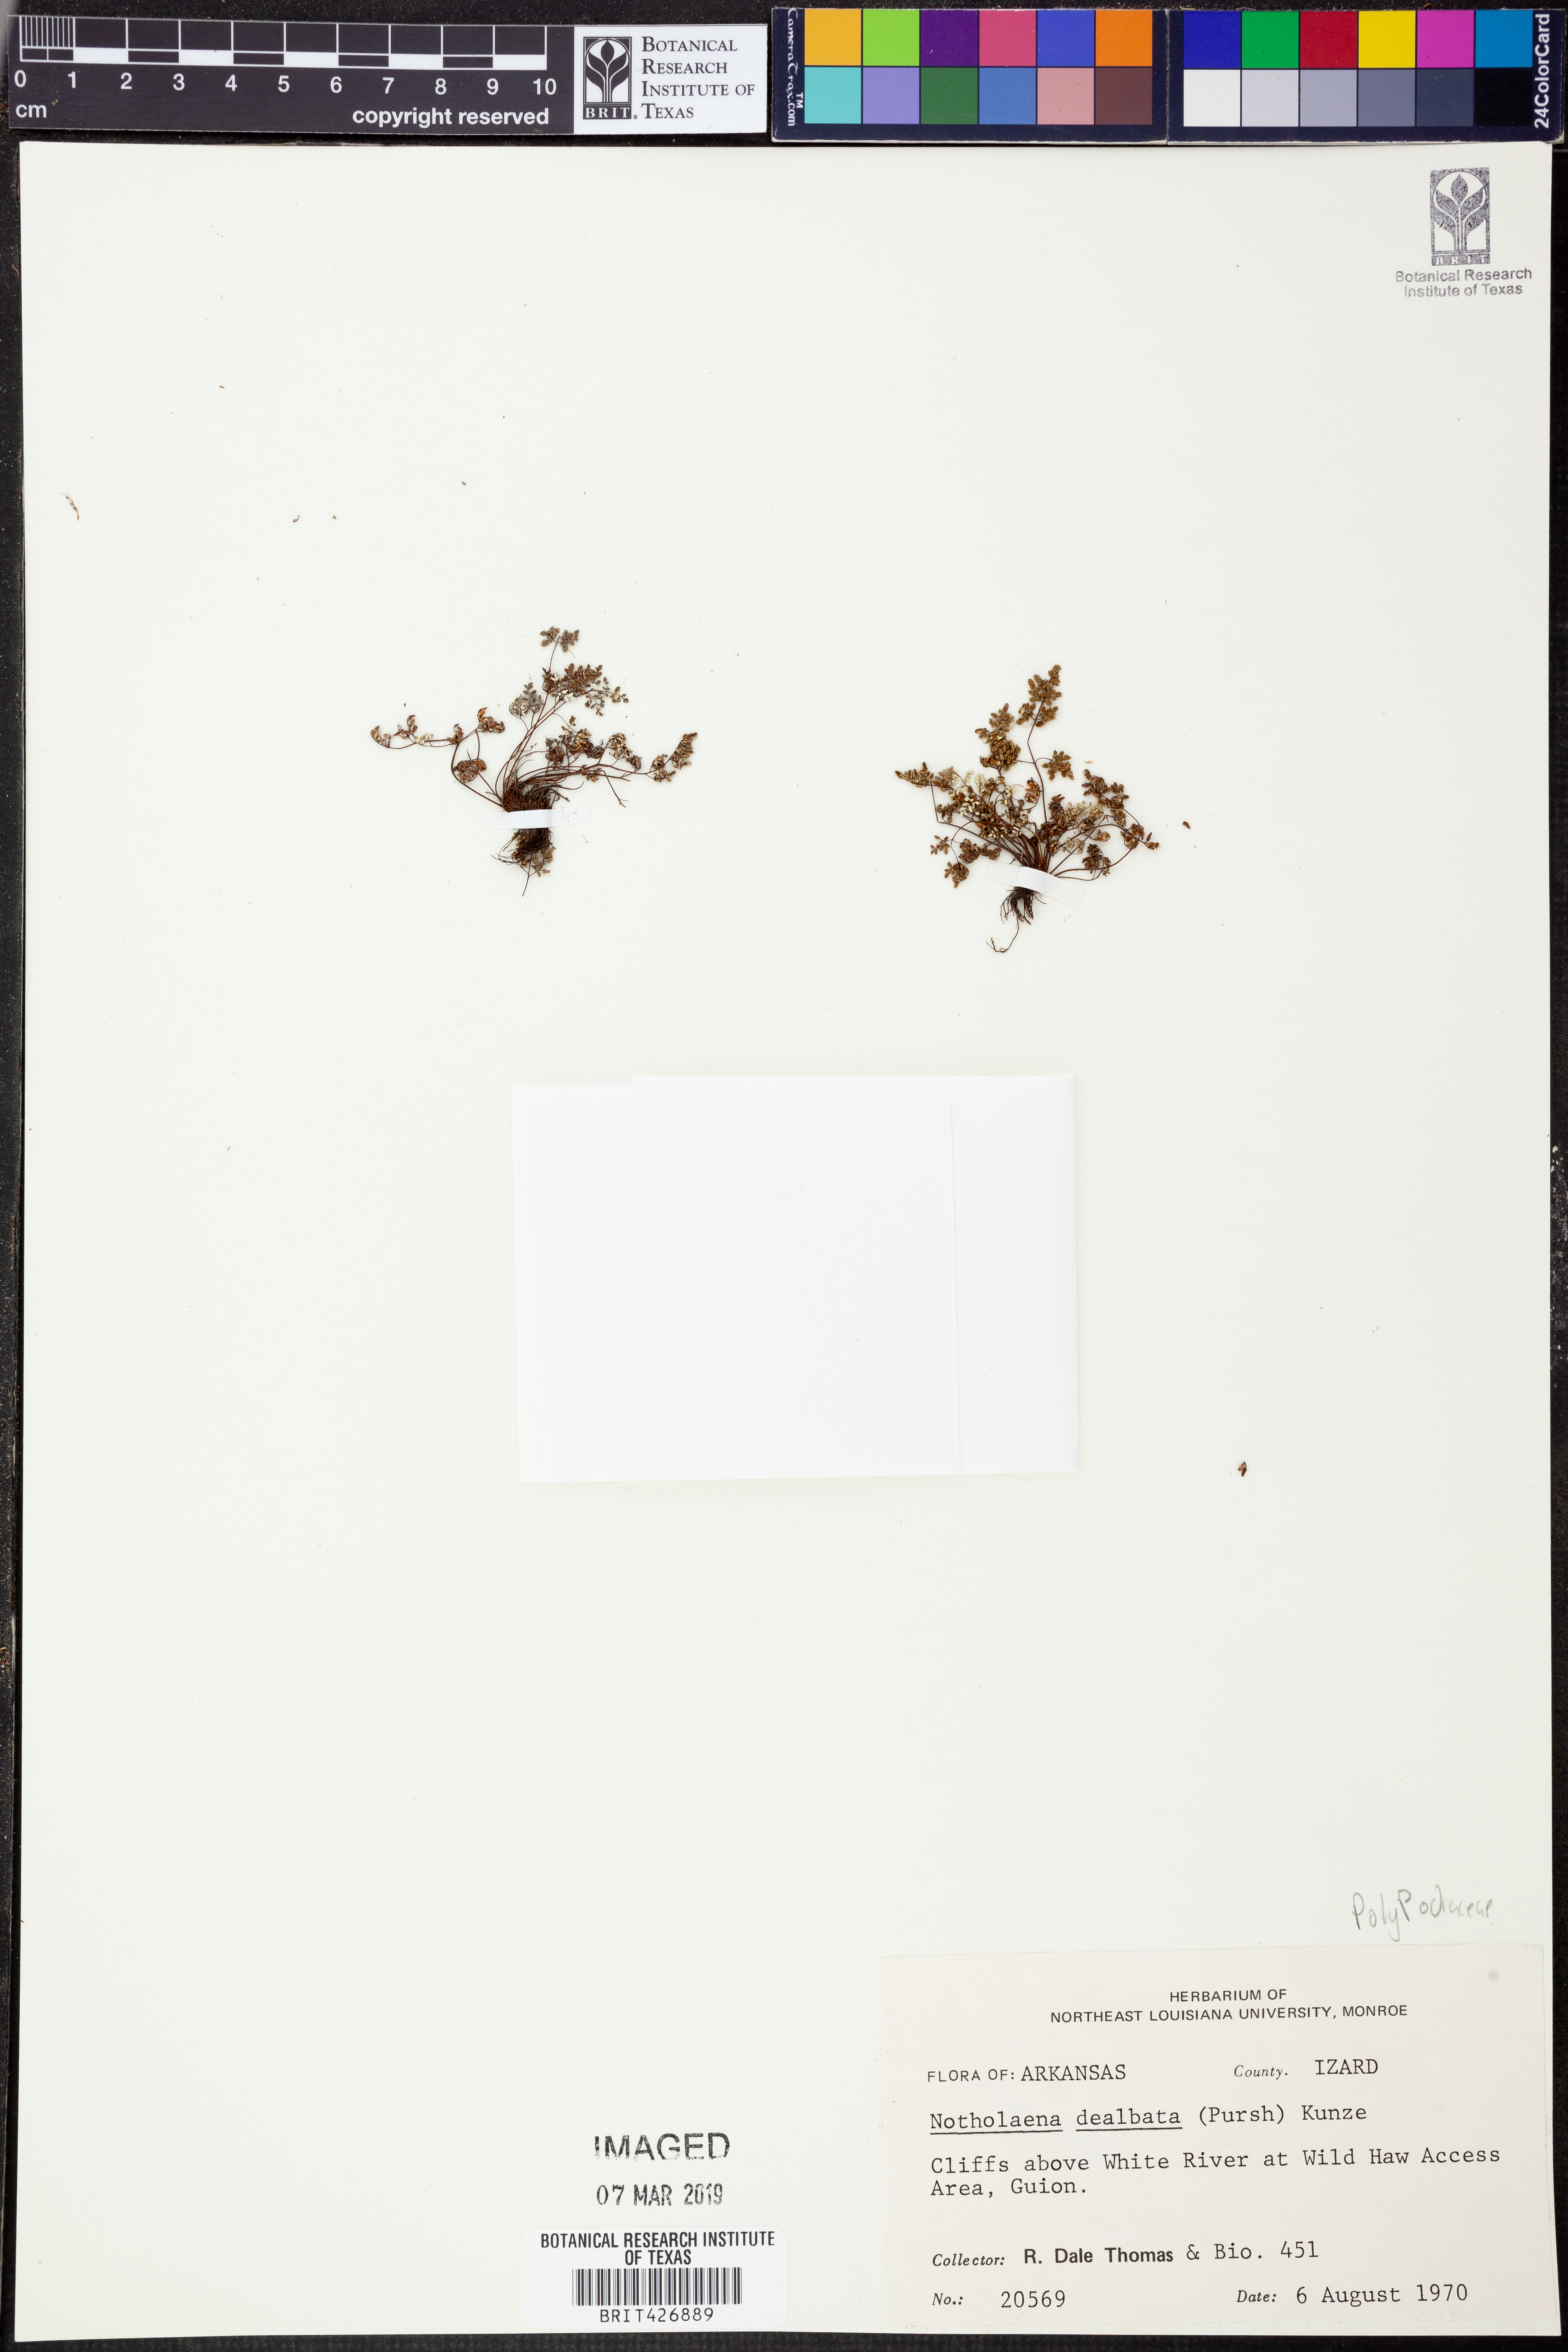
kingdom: Plantae
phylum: Tracheophyta
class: Polypodiopsida
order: Polypodiales
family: Pteridaceae
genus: Argyrochosma
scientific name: Argyrochosma dealbata
